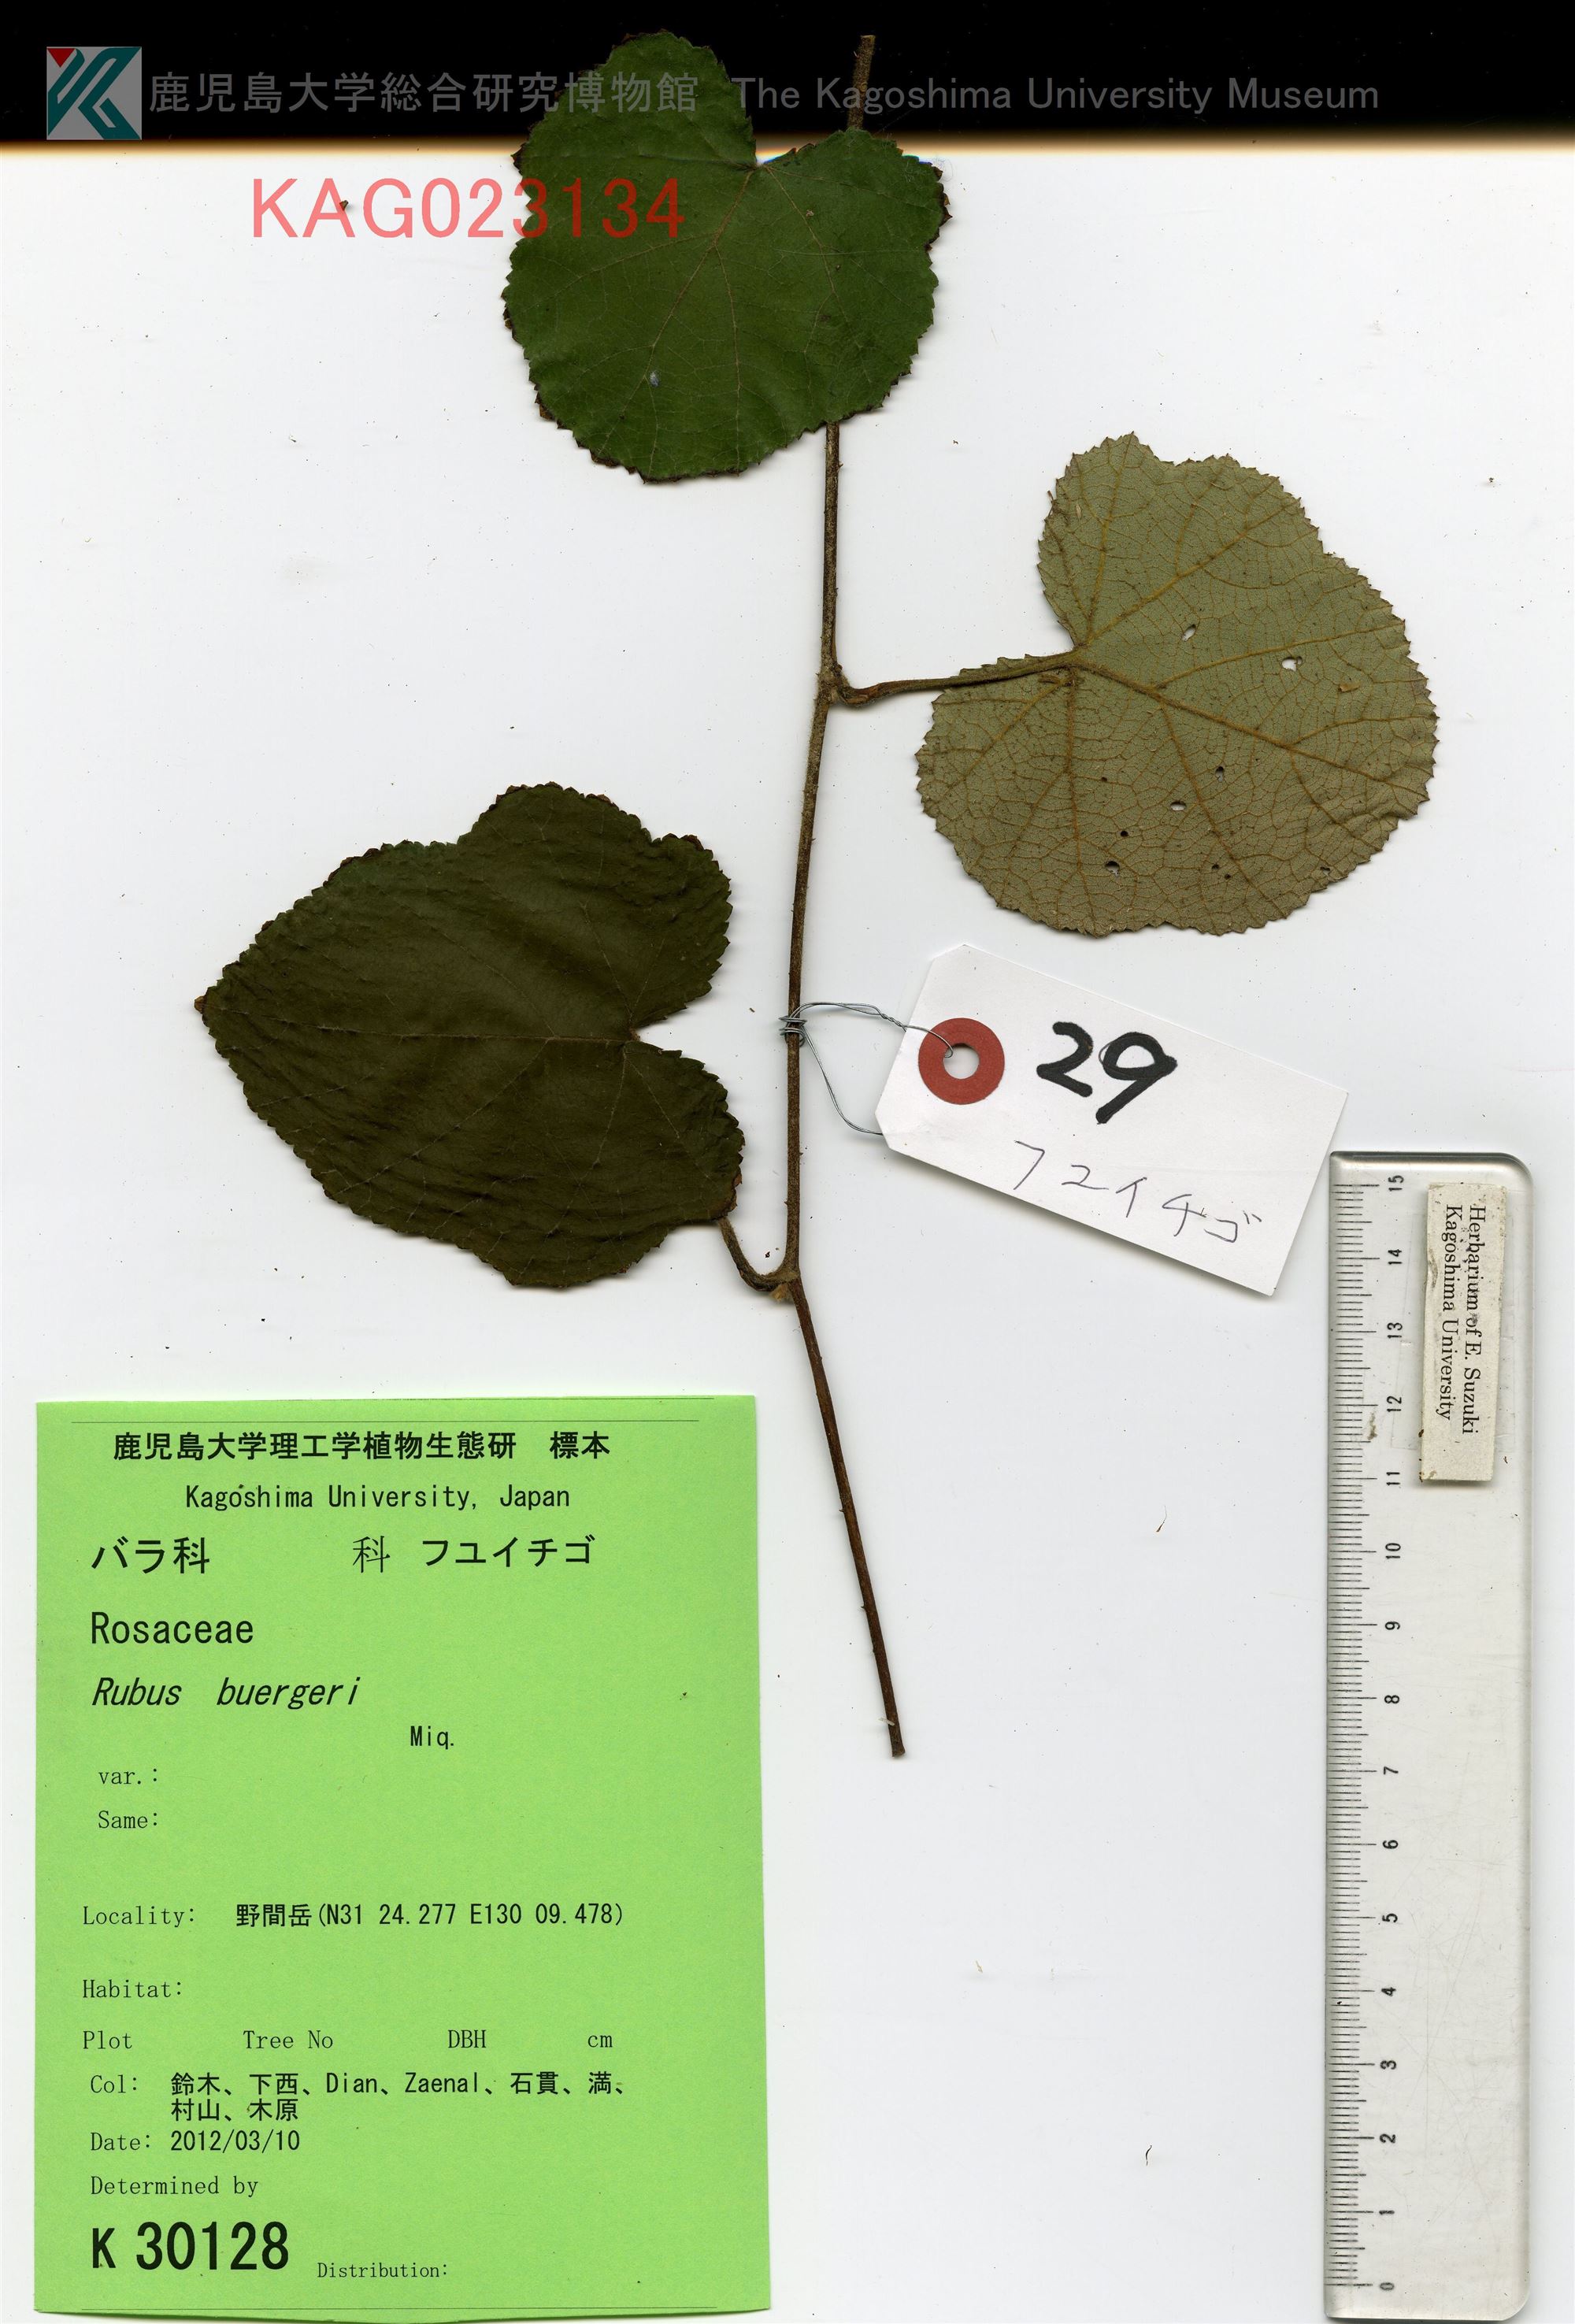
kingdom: Plantae
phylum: Tracheophyta
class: Magnoliopsida
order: Rosales
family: Rosaceae
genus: Rubus
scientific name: Rubus buergeri
